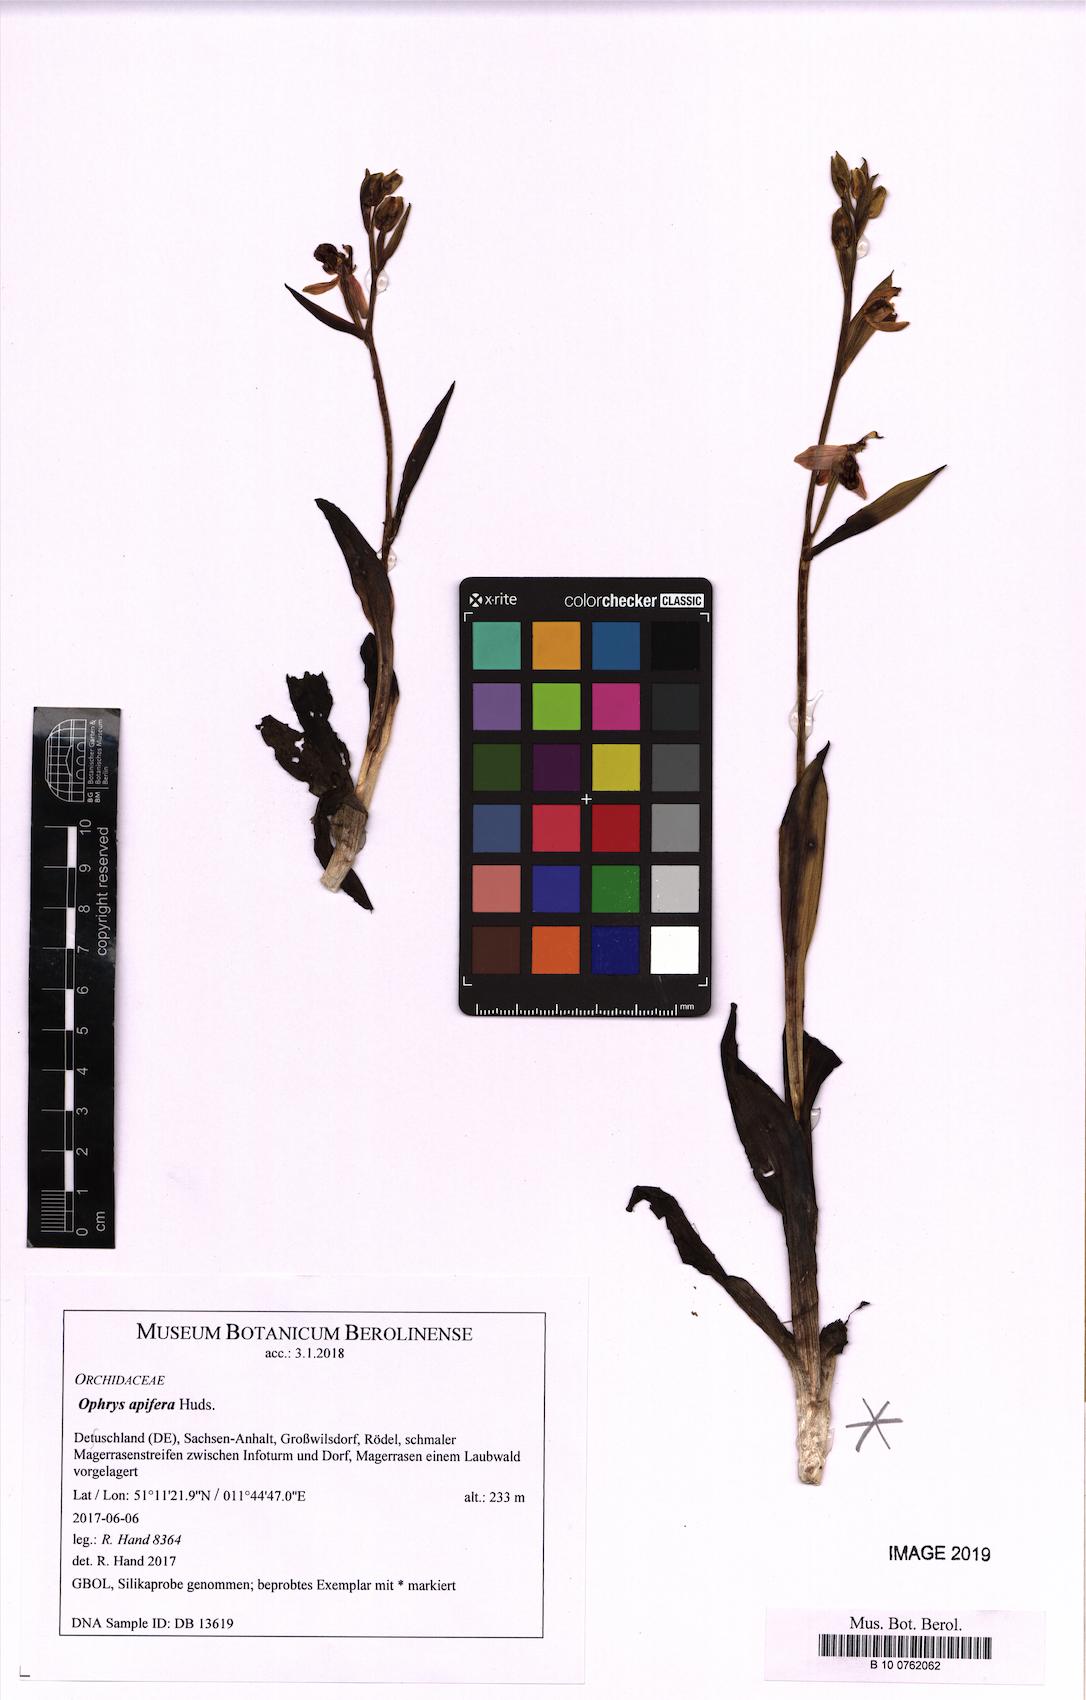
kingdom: Plantae
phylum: Tracheophyta
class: Liliopsida
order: Asparagales
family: Orchidaceae
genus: Ophrys
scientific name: Ophrys apifera
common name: Bee orchid
